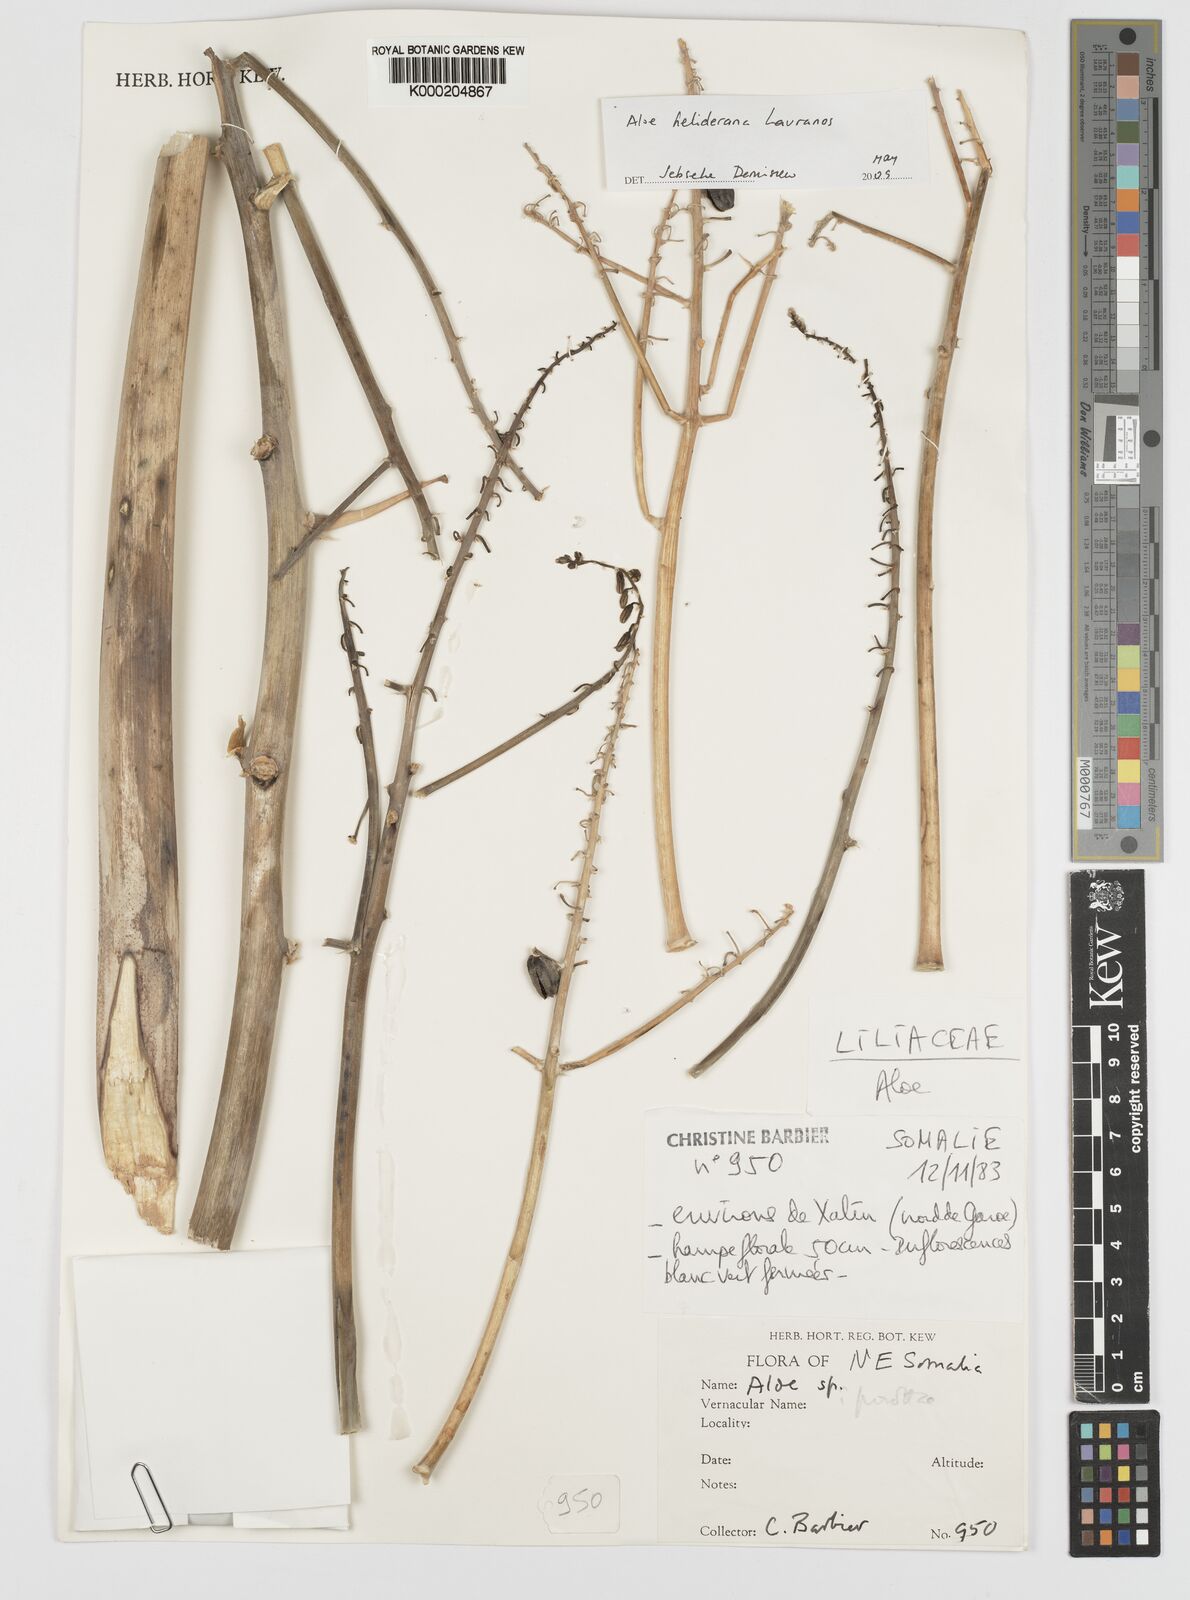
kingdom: Plantae
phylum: Tracheophyta
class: Liliopsida
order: Asparagales
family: Asphodelaceae
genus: Aloe
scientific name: Aloe heliderana
